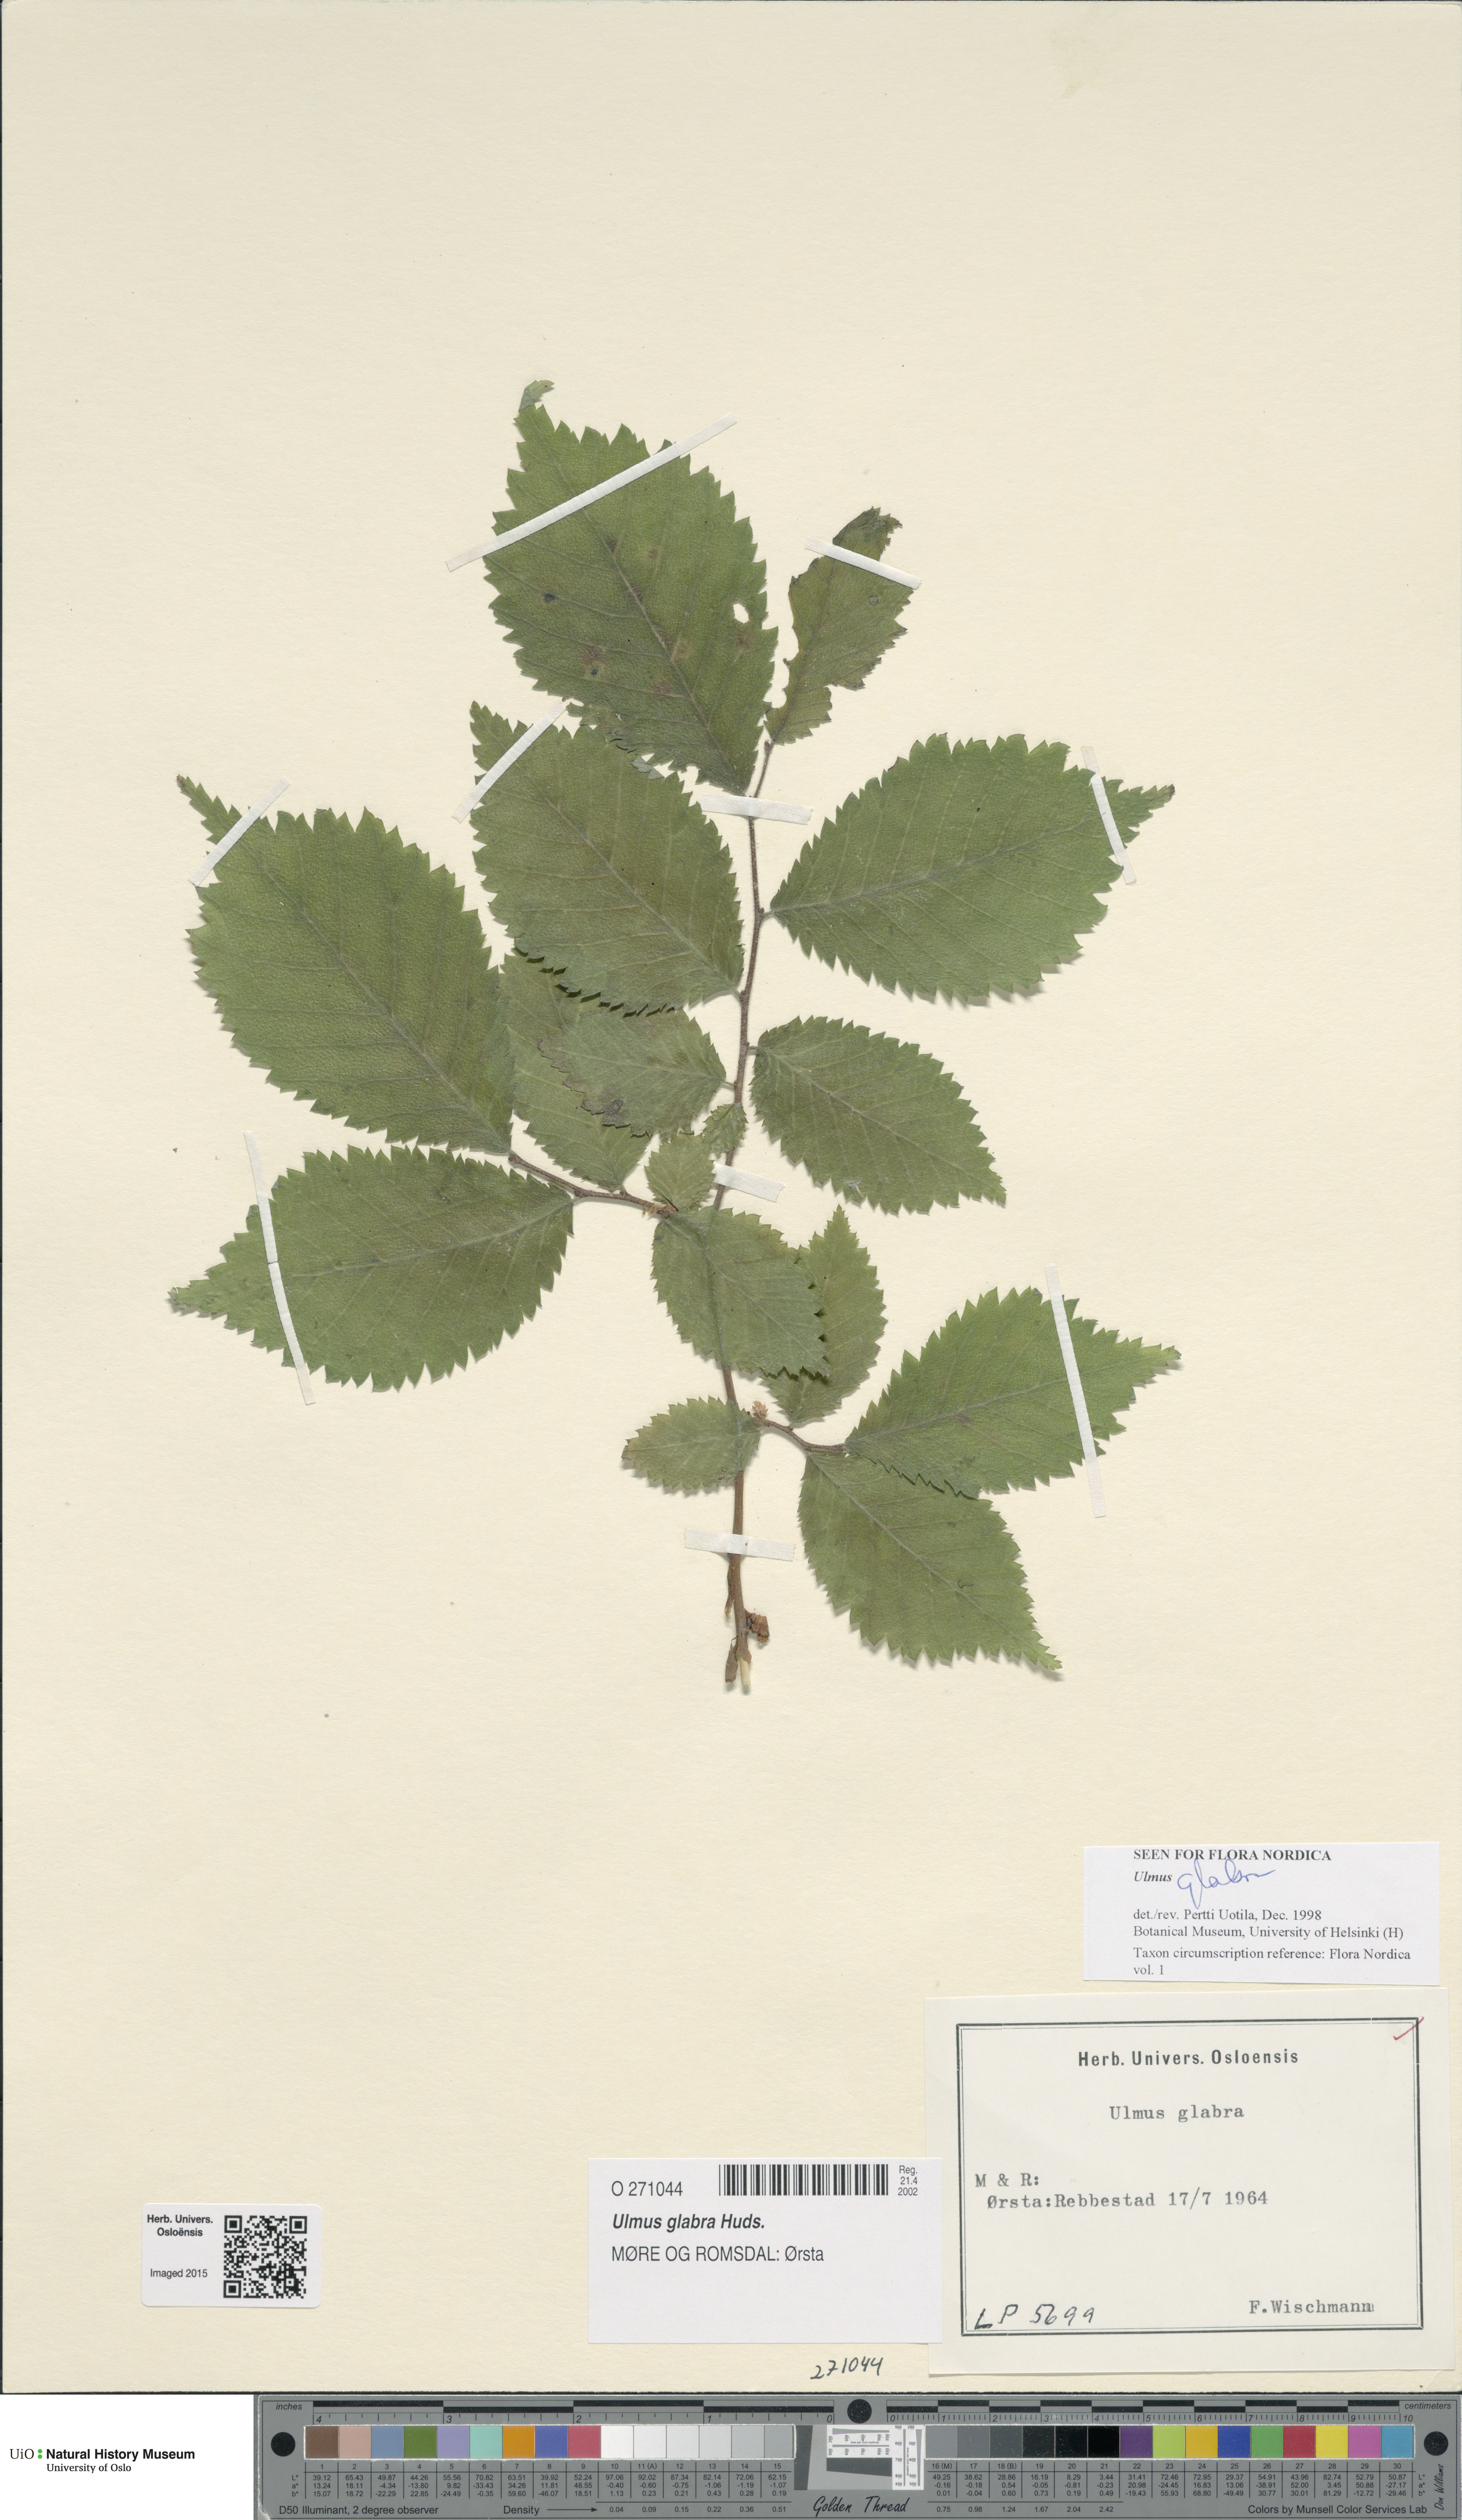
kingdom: Plantae
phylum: Tracheophyta
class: Magnoliopsida
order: Rosales
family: Ulmaceae
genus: Ulmus
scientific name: Ulmus glabra
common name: Wych elm
